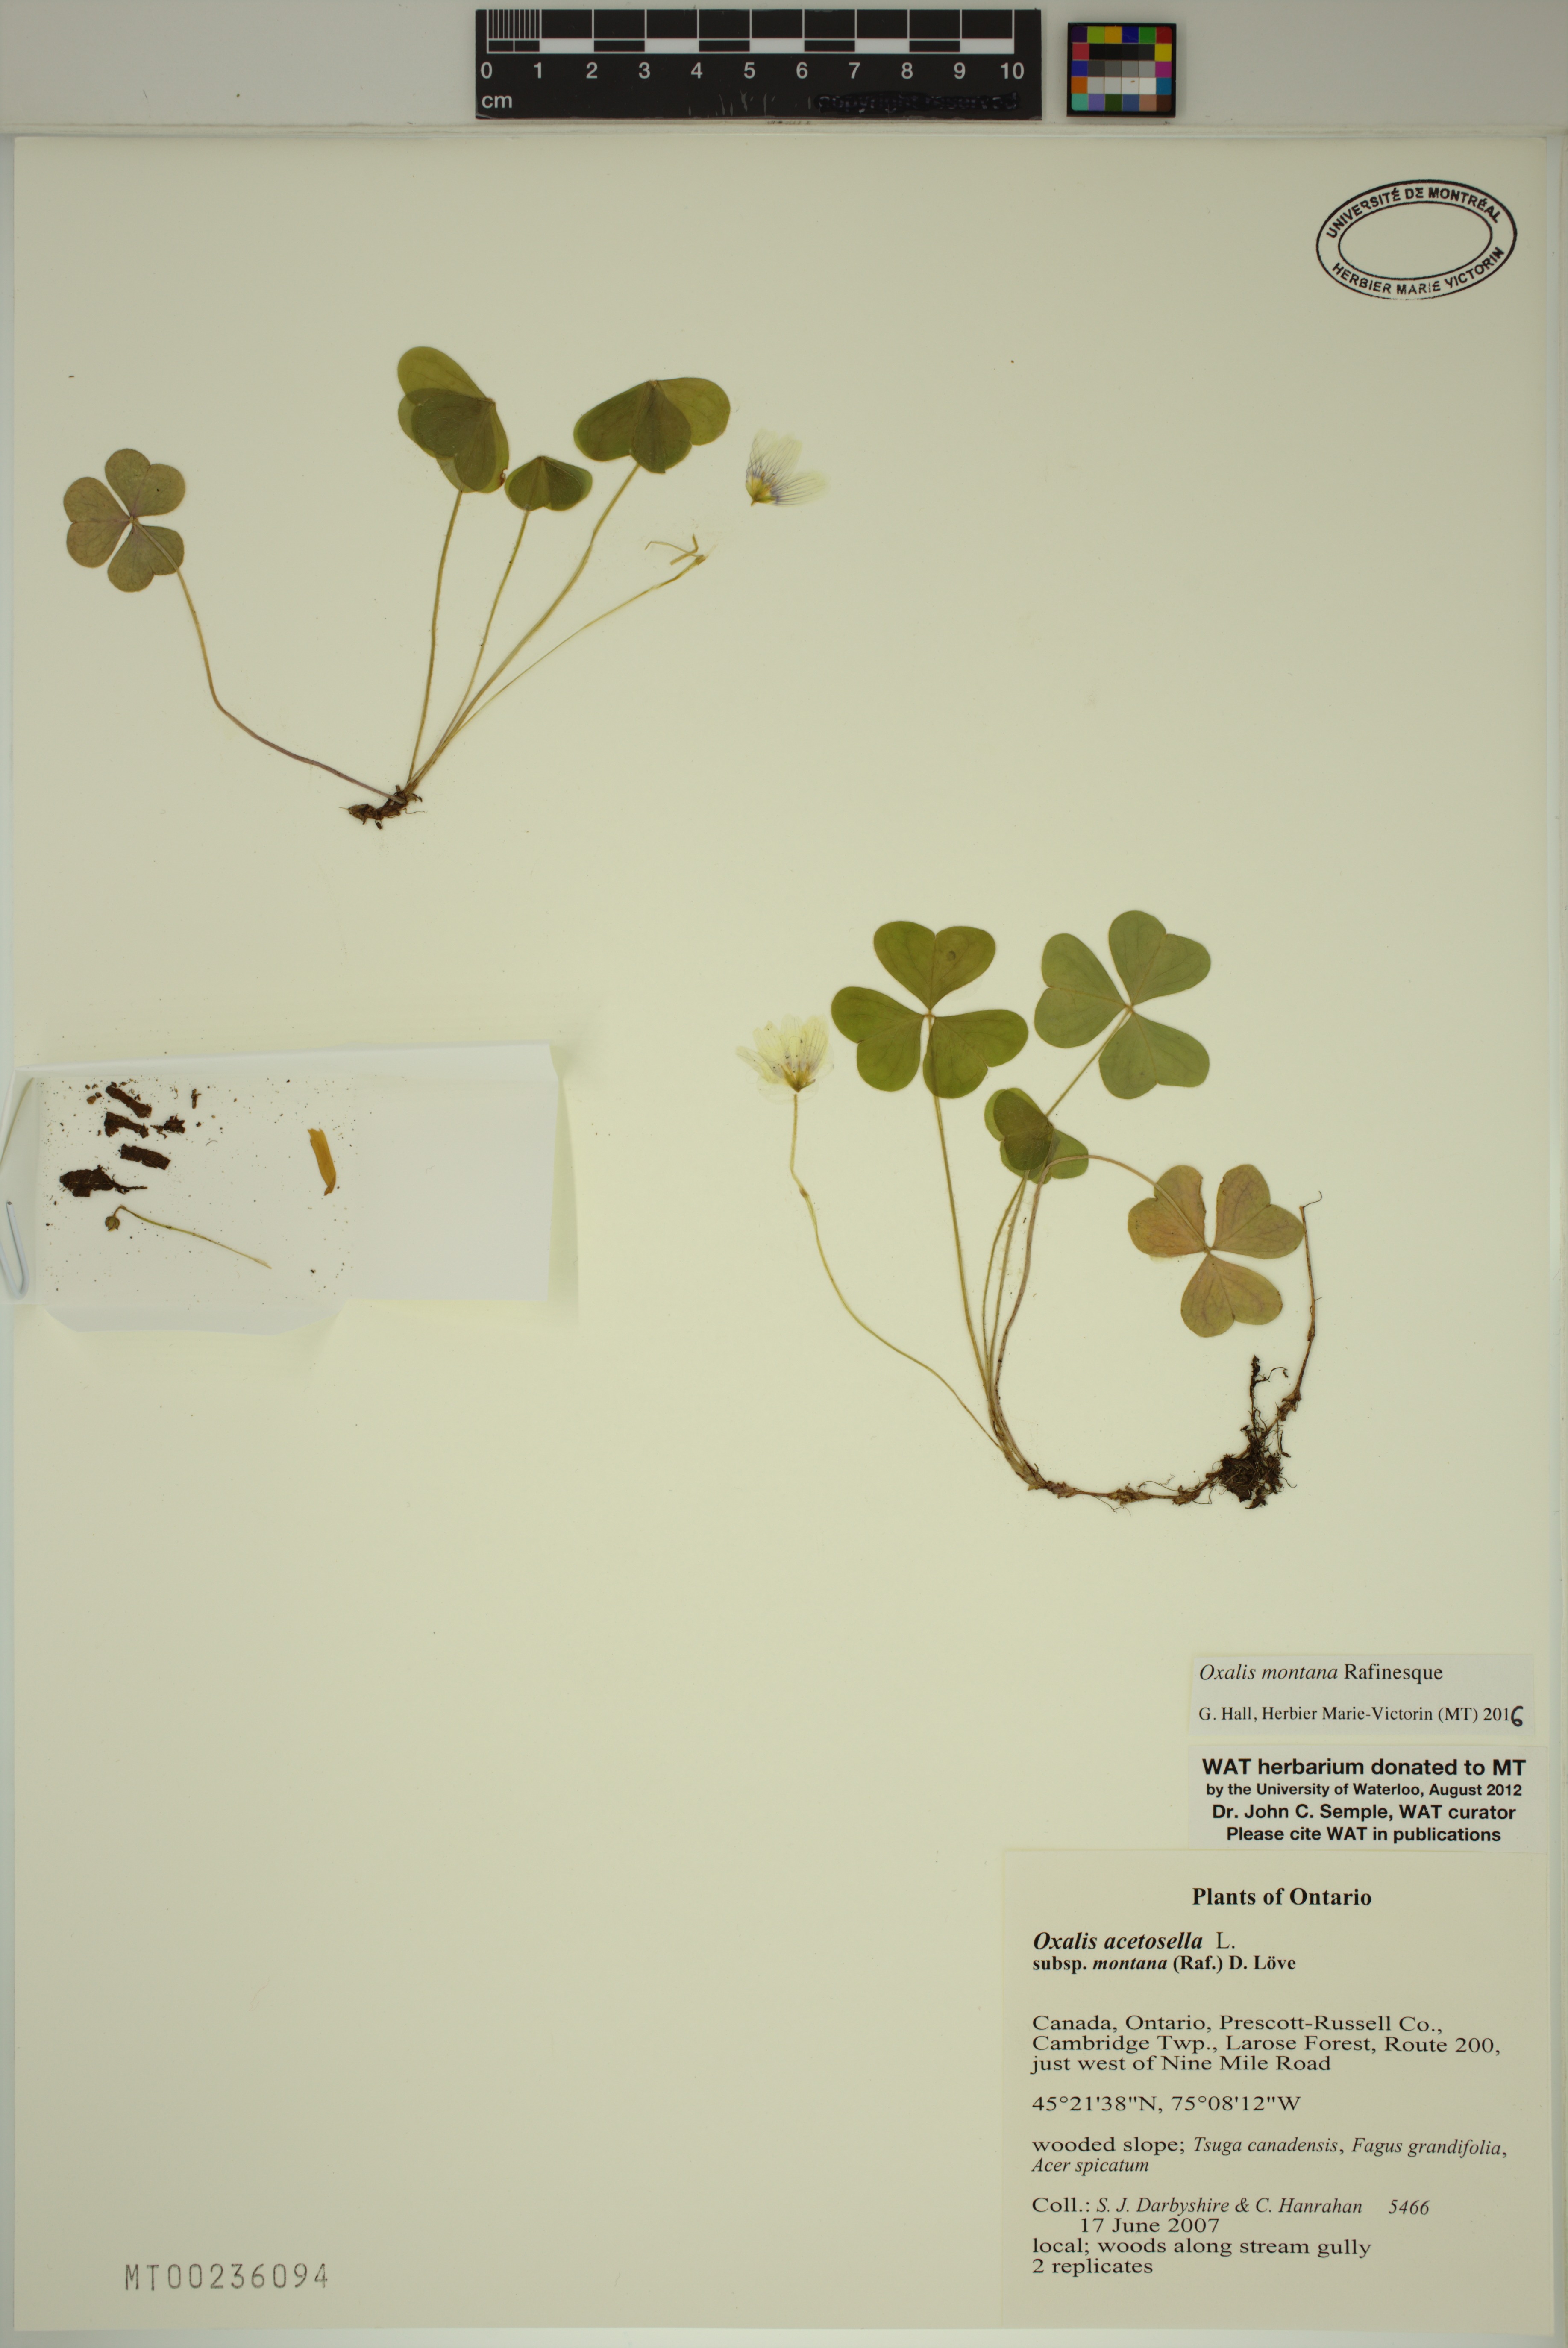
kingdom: Plantae
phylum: Tracheophyta
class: Magnoliopsida
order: Oxalidales
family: Oxalidaceae
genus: Oxalis
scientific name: Oxalis montana
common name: American wood-sorrel
